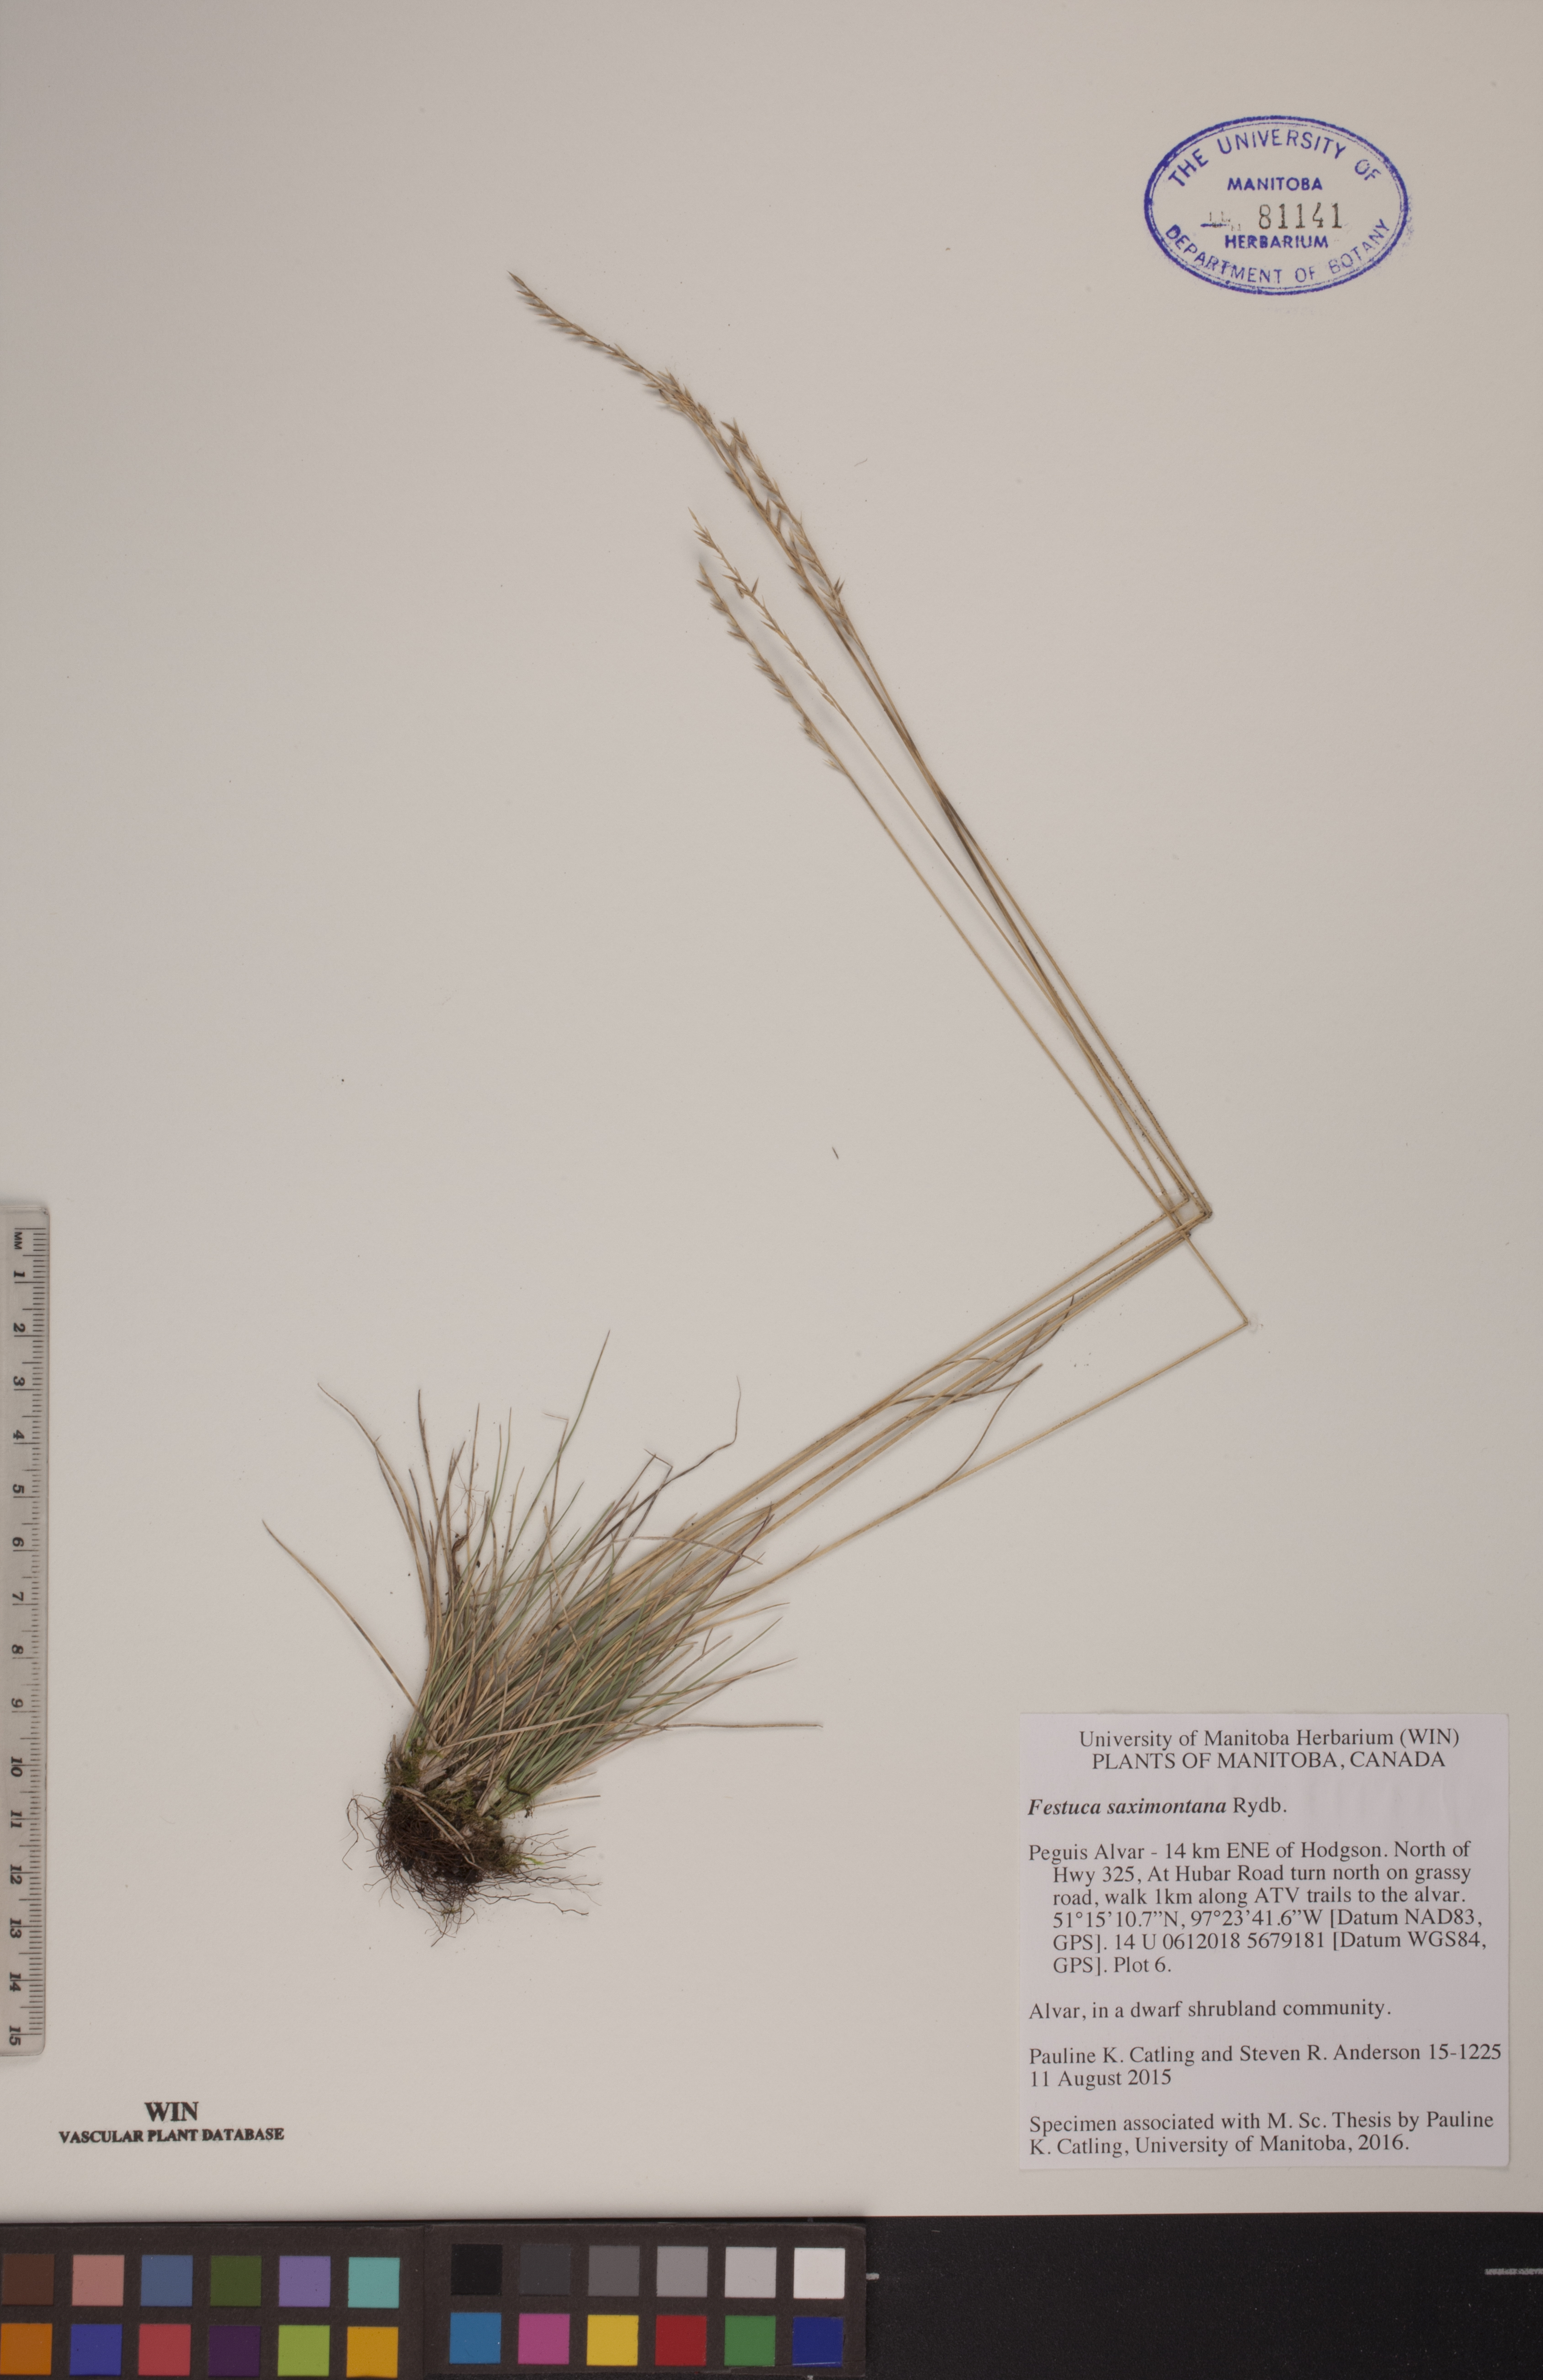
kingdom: Plantae
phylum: Tracheophyta
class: Liliopsida
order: Poales
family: Poaceae
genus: Festuca
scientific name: Festuca saximontana
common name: Mountain fescue
